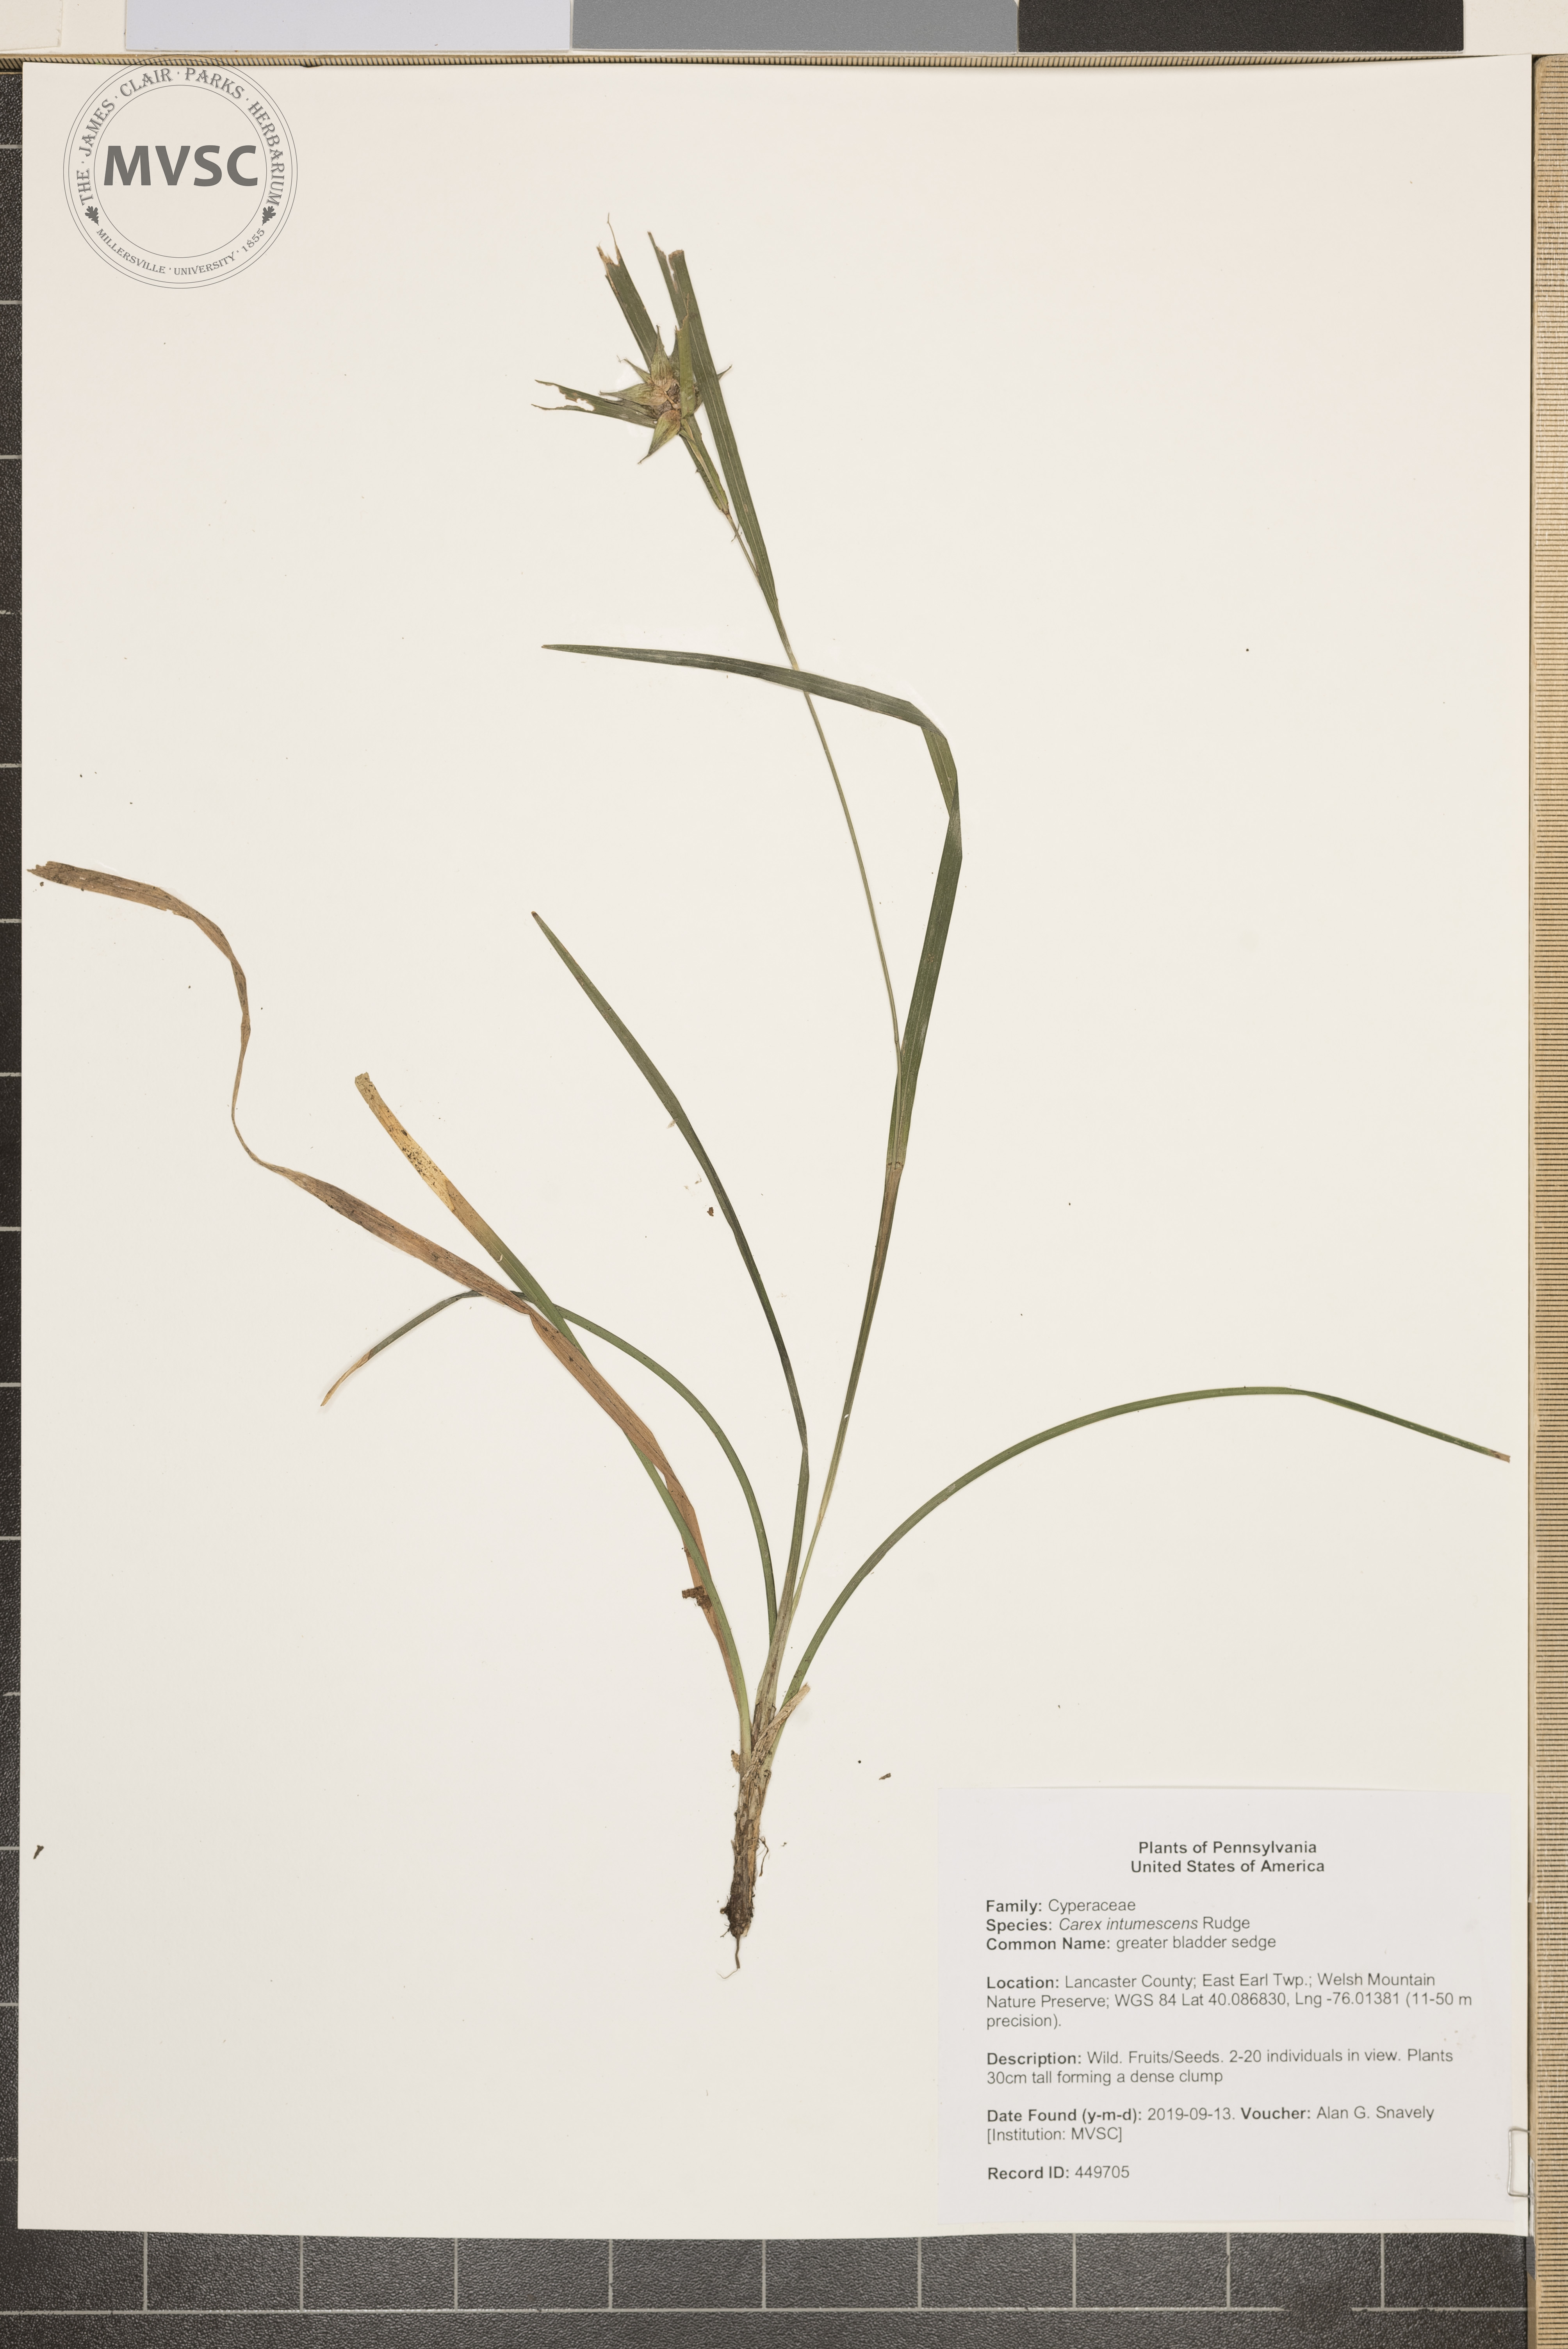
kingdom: Plantae
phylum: Tracheophyta
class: Liliopsida
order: Poales
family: Cyperaceae
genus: Carex
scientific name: Carex intumescens
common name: greater bladder sedge
